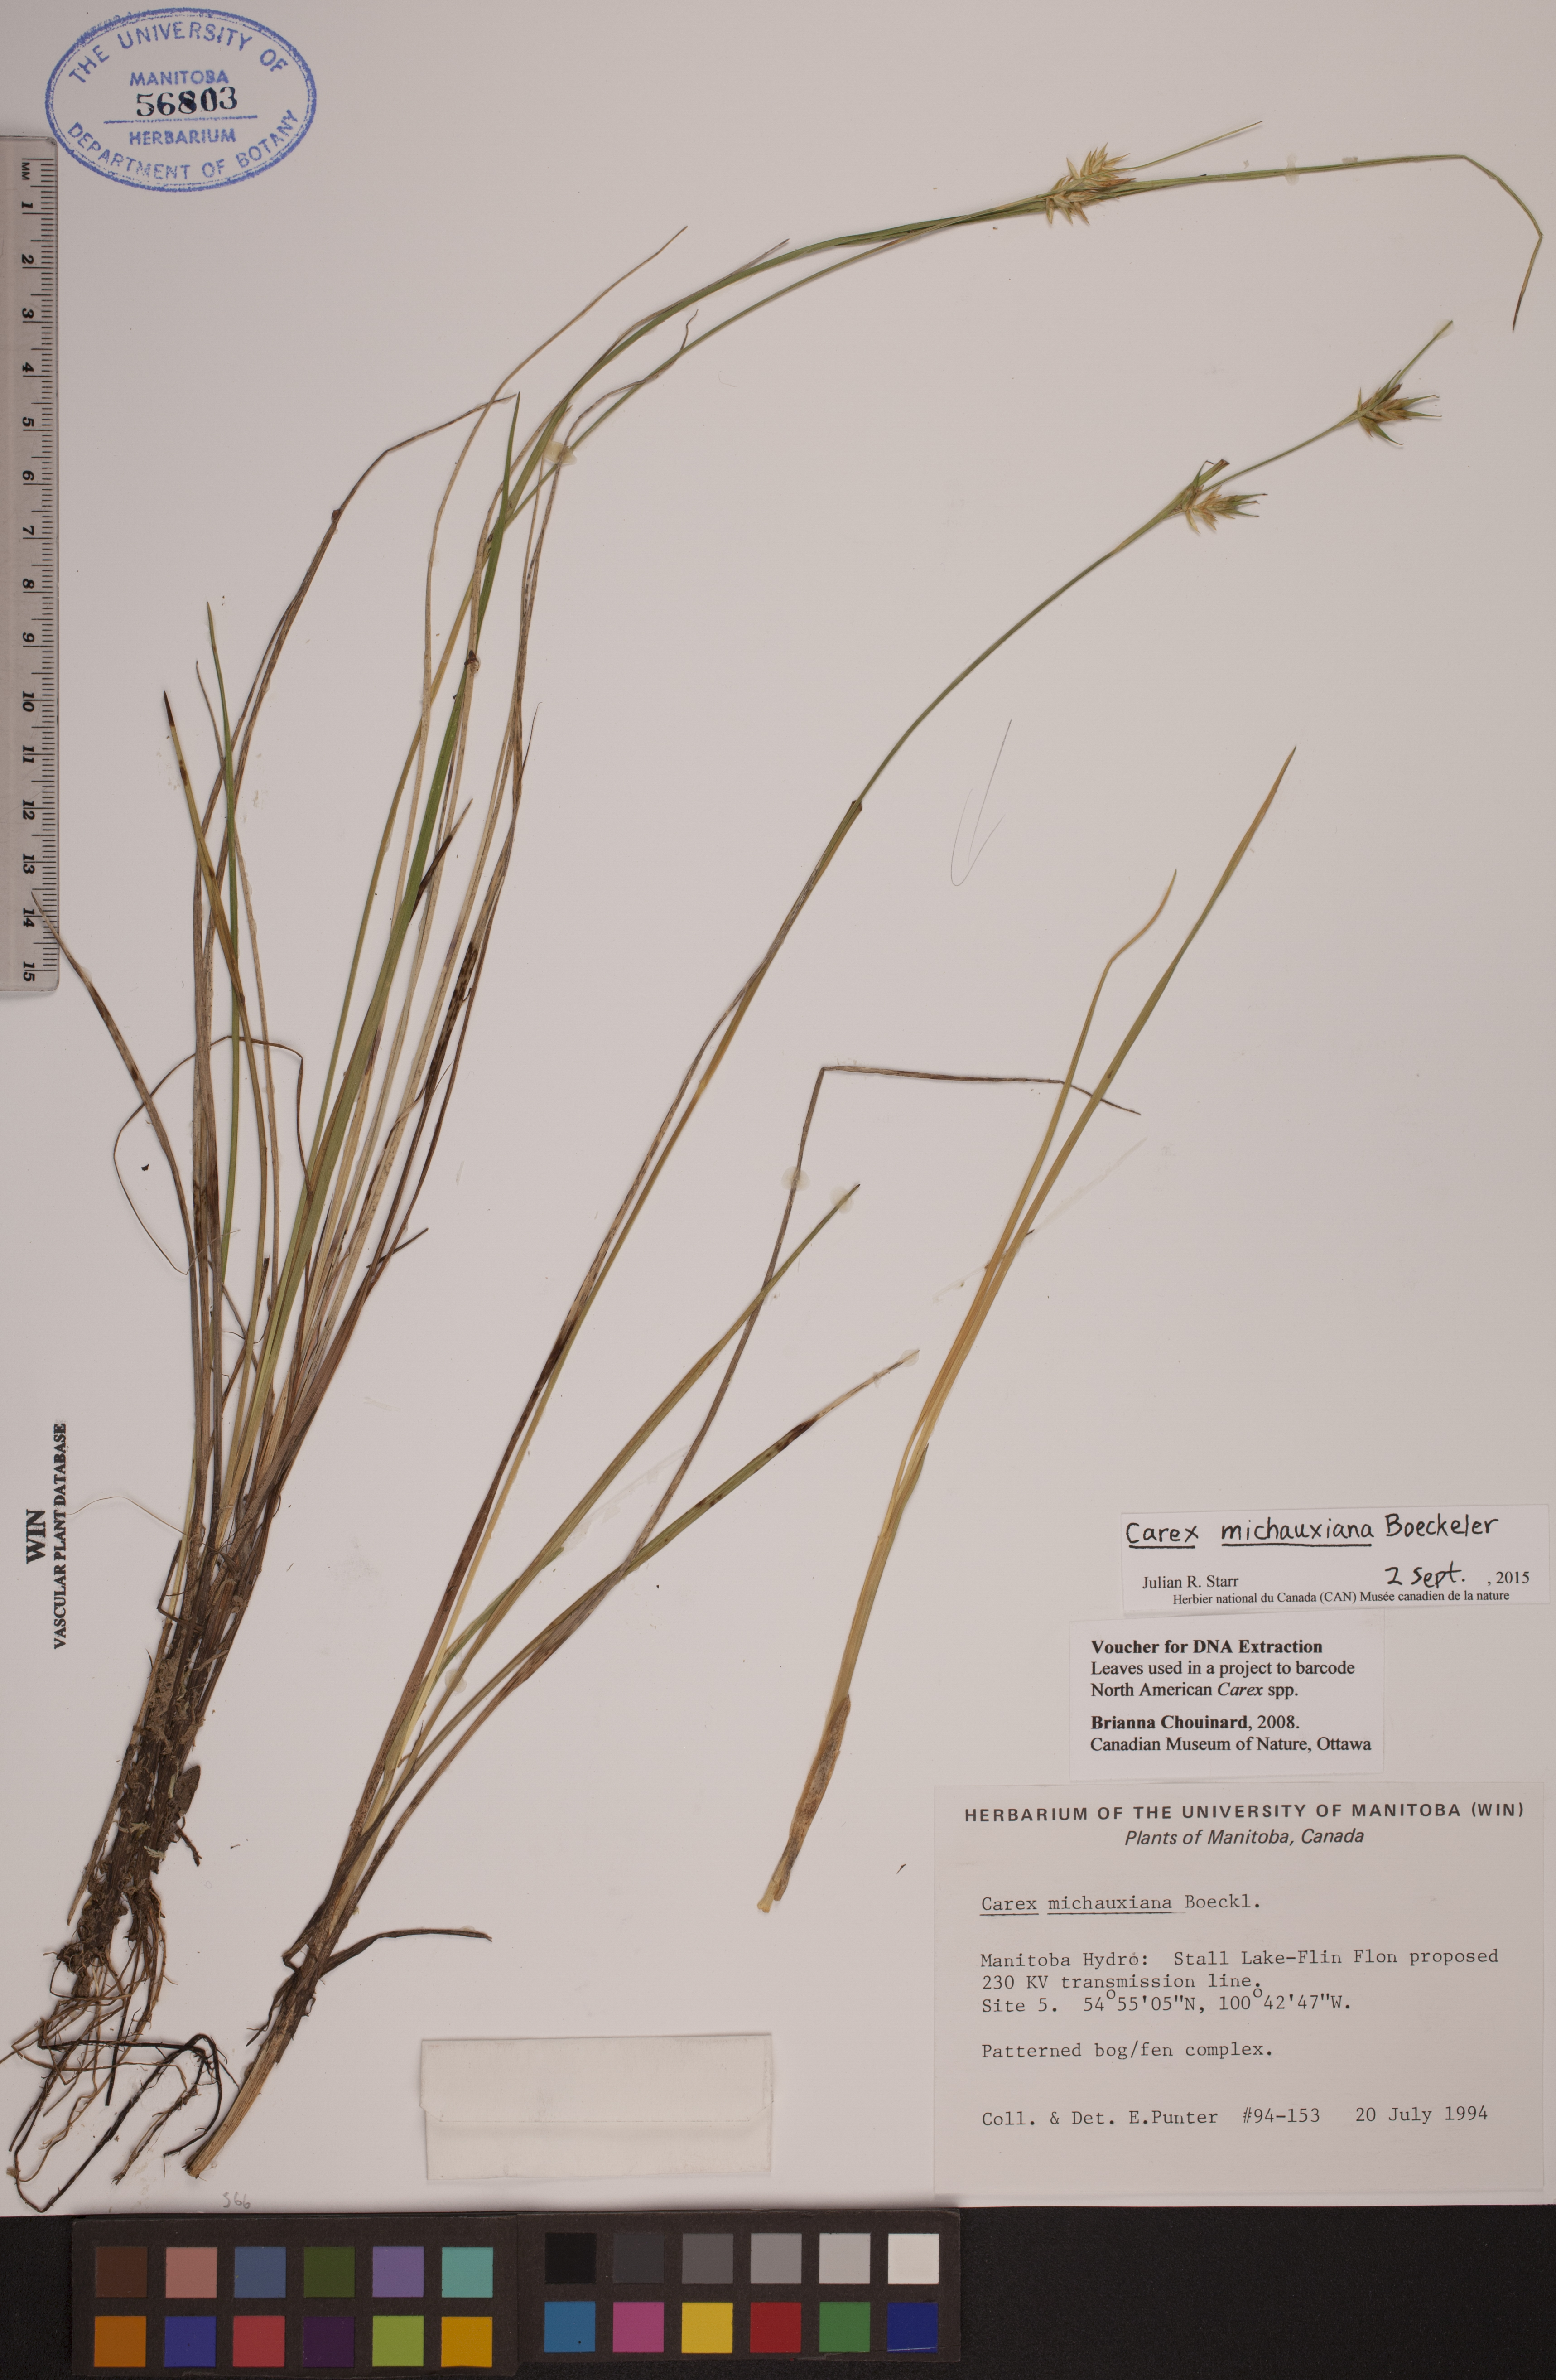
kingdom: Plantae
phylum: Tracheophyta
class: Liliopsida
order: Poales
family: Cyperaceae
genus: Carex
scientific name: Carex michauxiana
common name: Michaux's sedge
